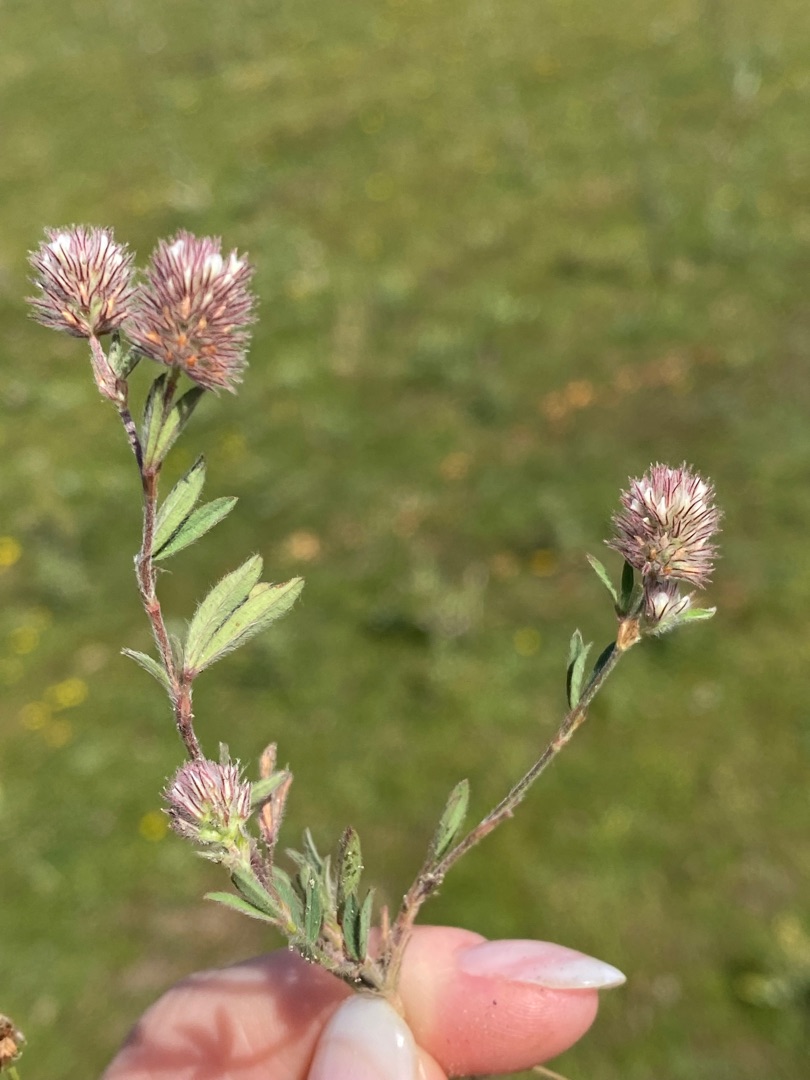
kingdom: Plantae
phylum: Tracheophyta
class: Magnoliopsida
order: Fabales
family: Fabaceae
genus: Trifolium
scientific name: Trifolium arvense
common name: Hare-kløver
